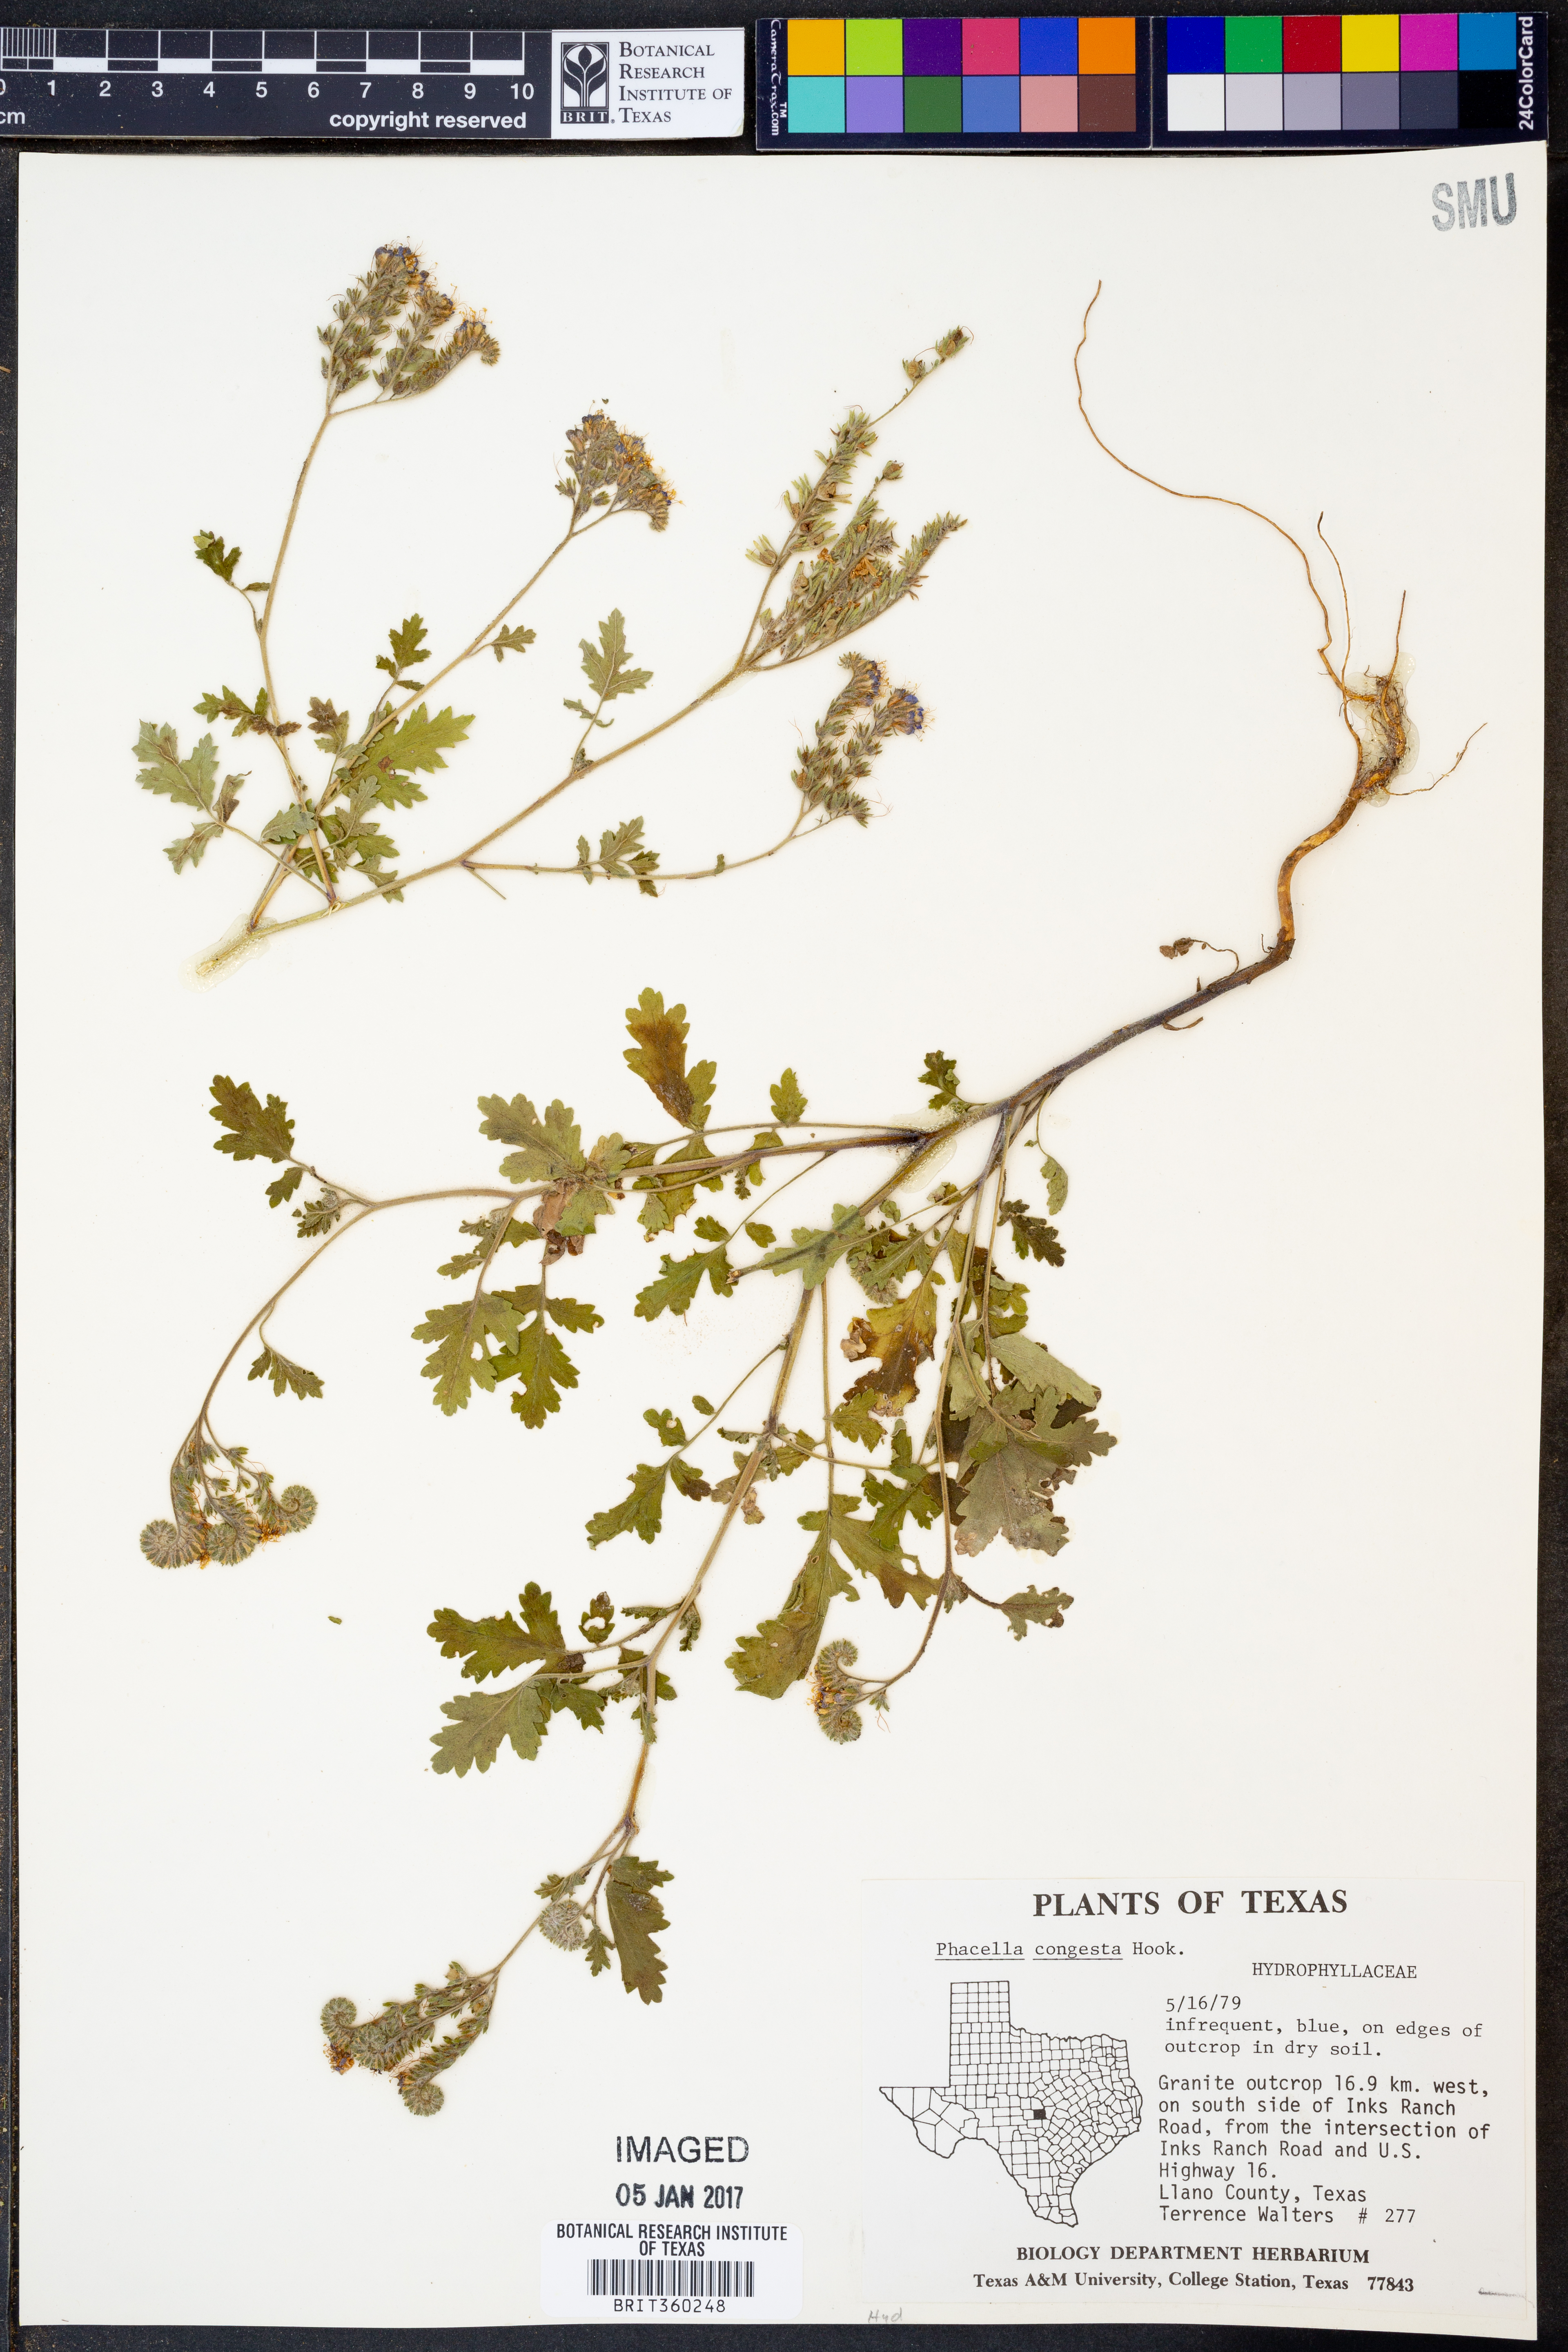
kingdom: Plantae
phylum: Tracheophyta
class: Magnoliopsida
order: Boraginales
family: Hydrophyllaceae
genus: Phacelia
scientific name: Phacelia congesta
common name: Blue curls
